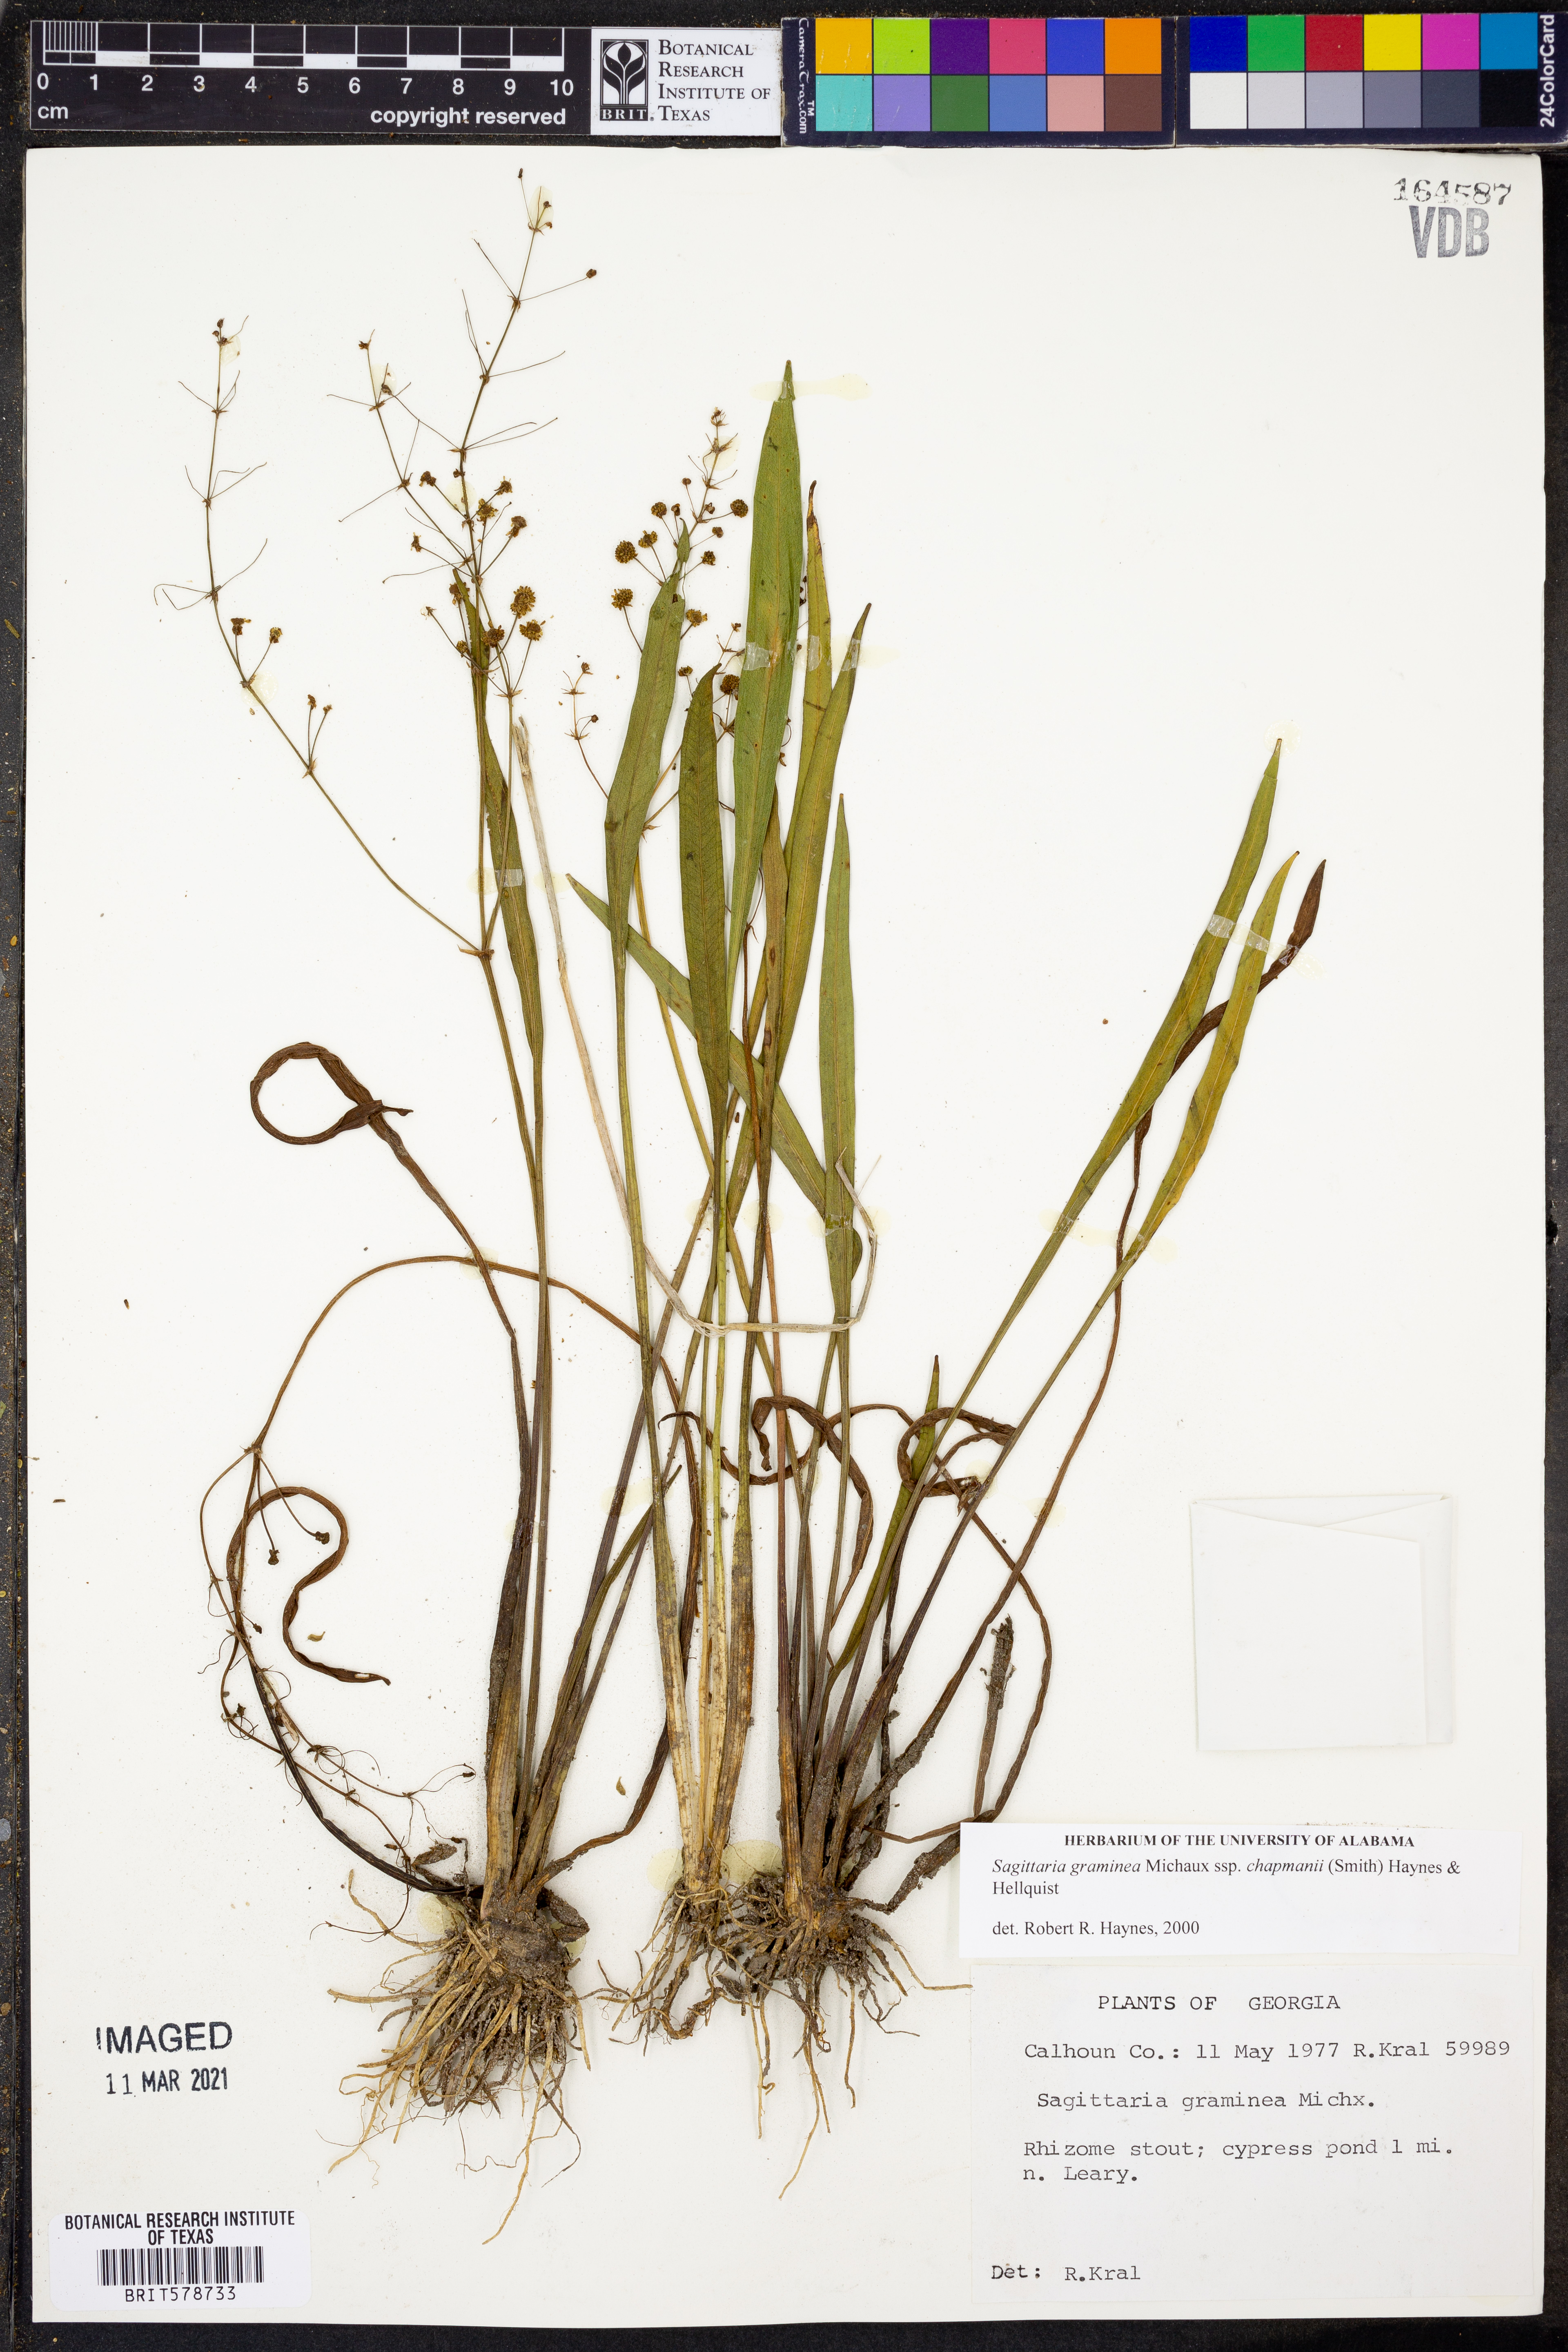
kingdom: Plantae
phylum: Tracheophyta
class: Liliopsida
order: Alismatales
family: Alismataceae
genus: Sagittaria
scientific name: Sagittaria chapmanii
